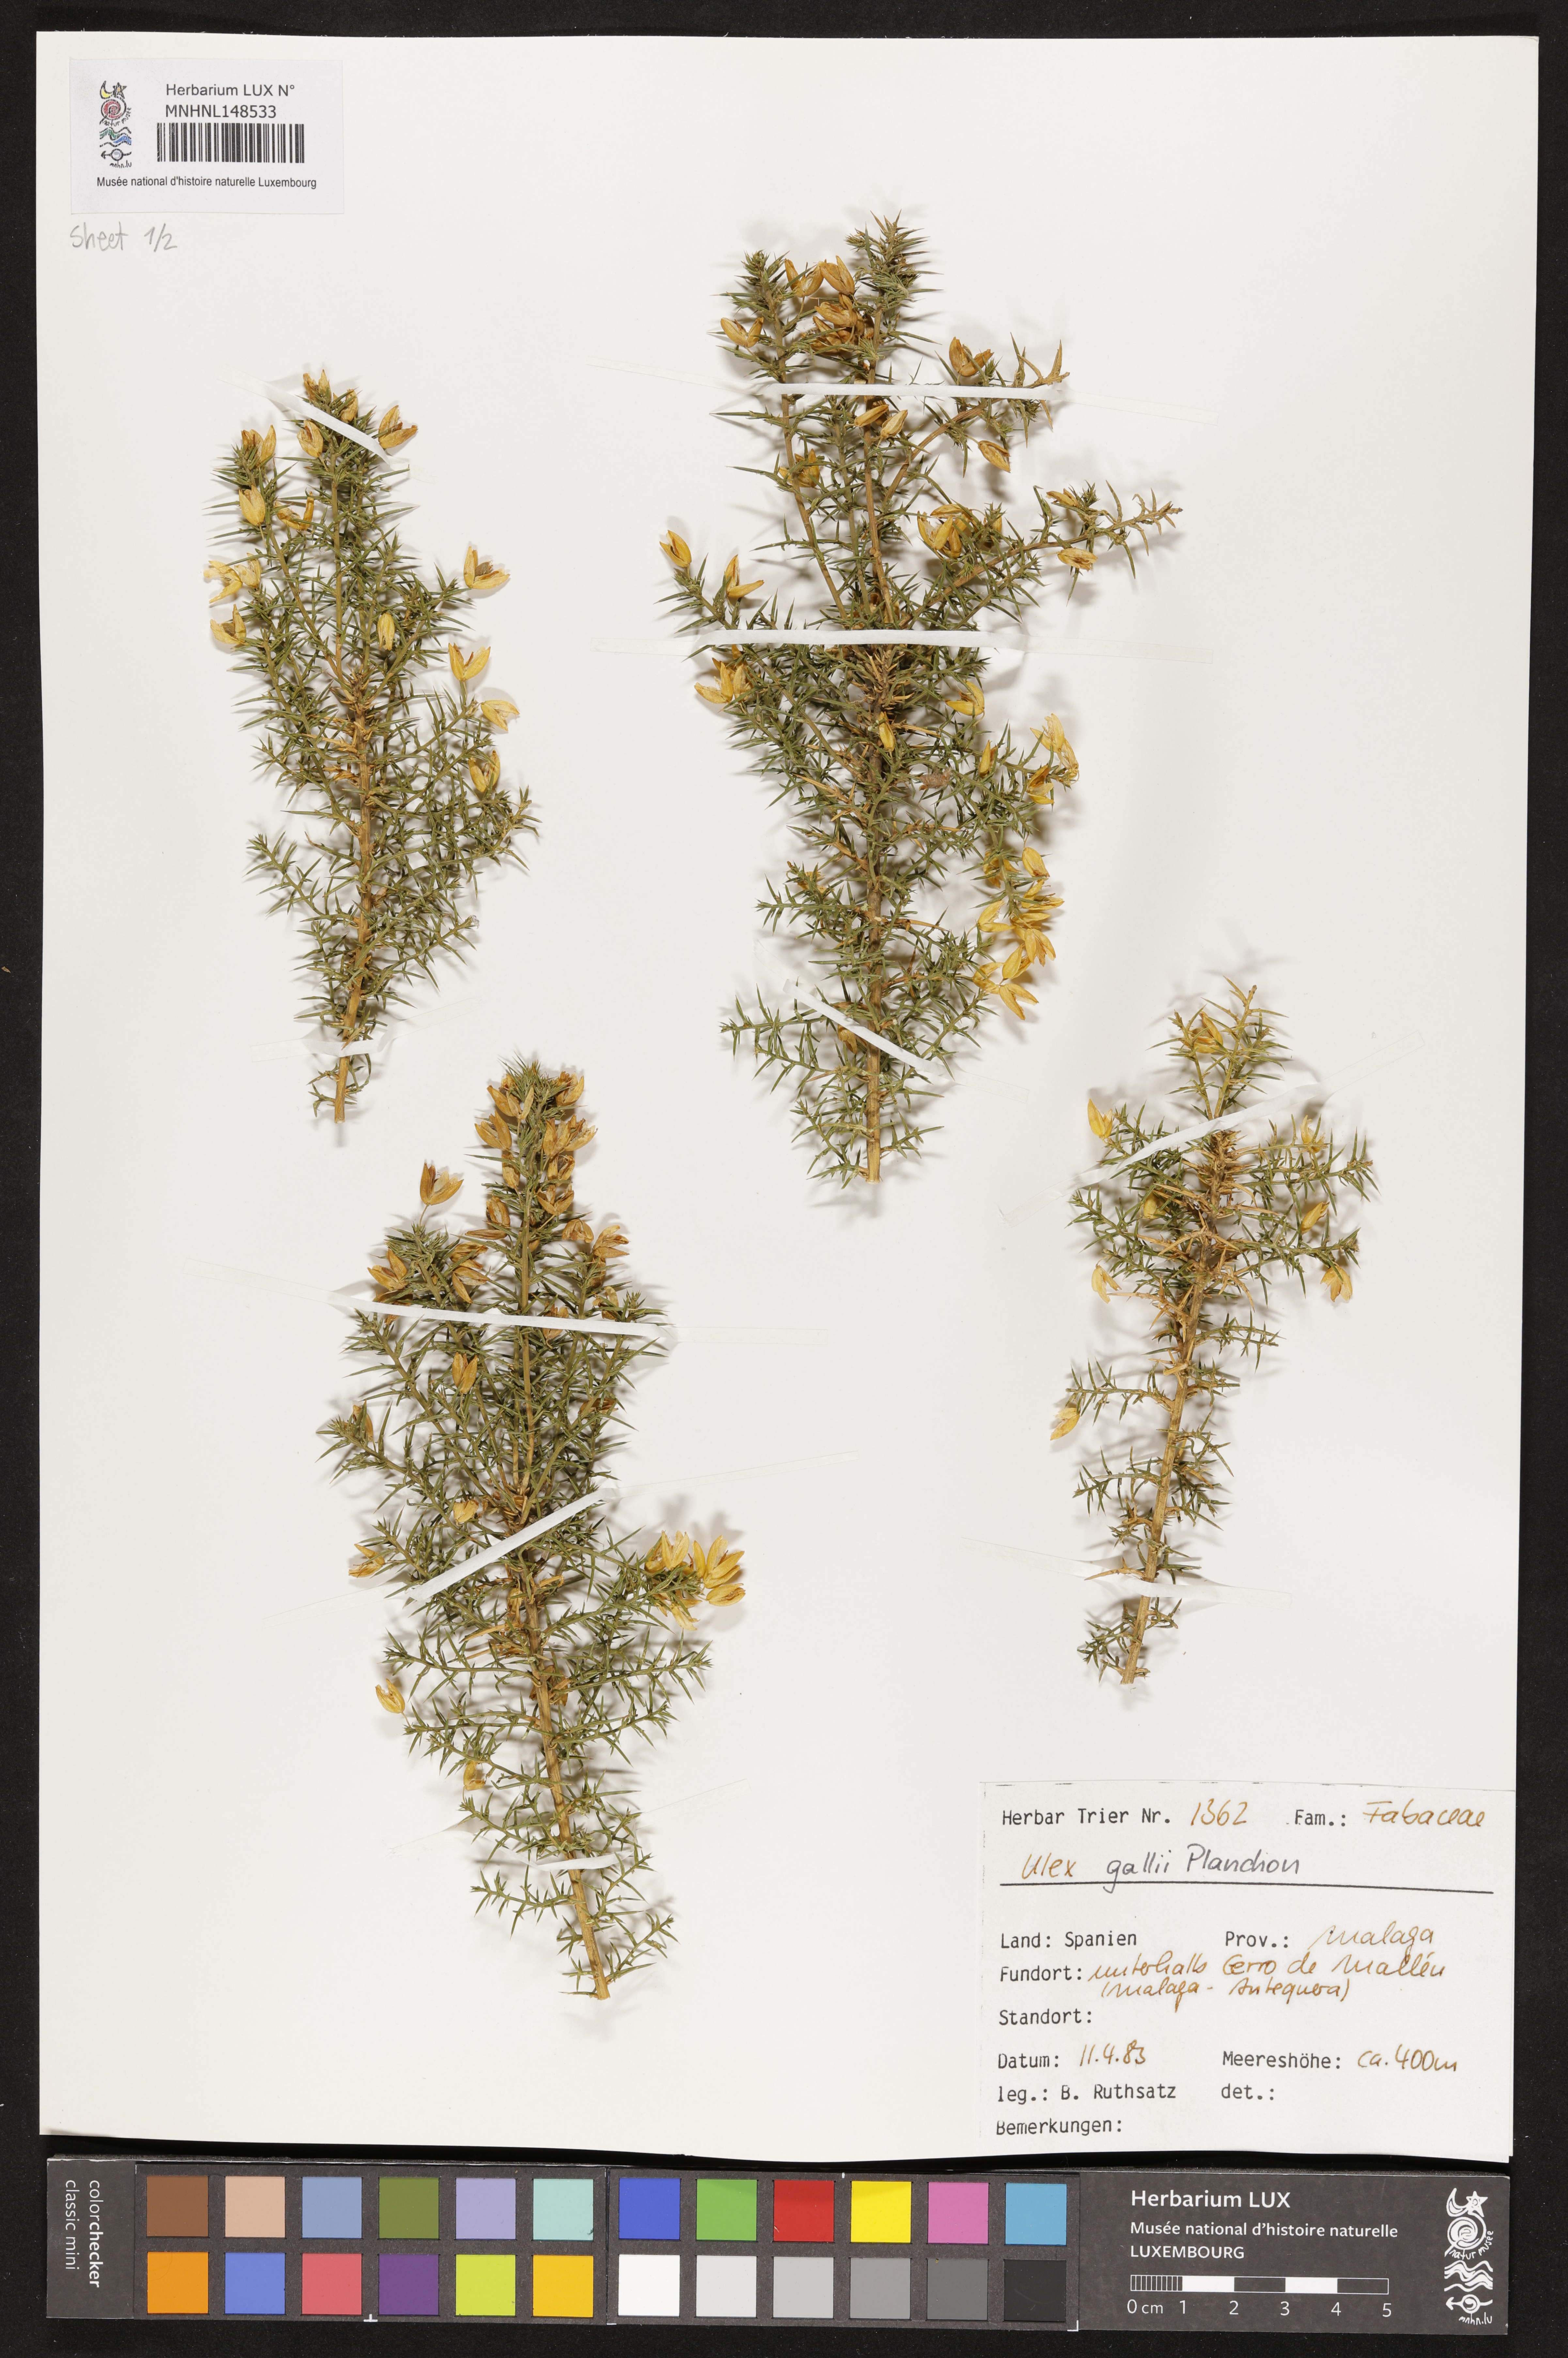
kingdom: Plantae
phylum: Tracheophyta
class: Magnoliopsida
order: Fabales
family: Fabaceae
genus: Ulex
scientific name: Ulex gallii
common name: Western gorse
